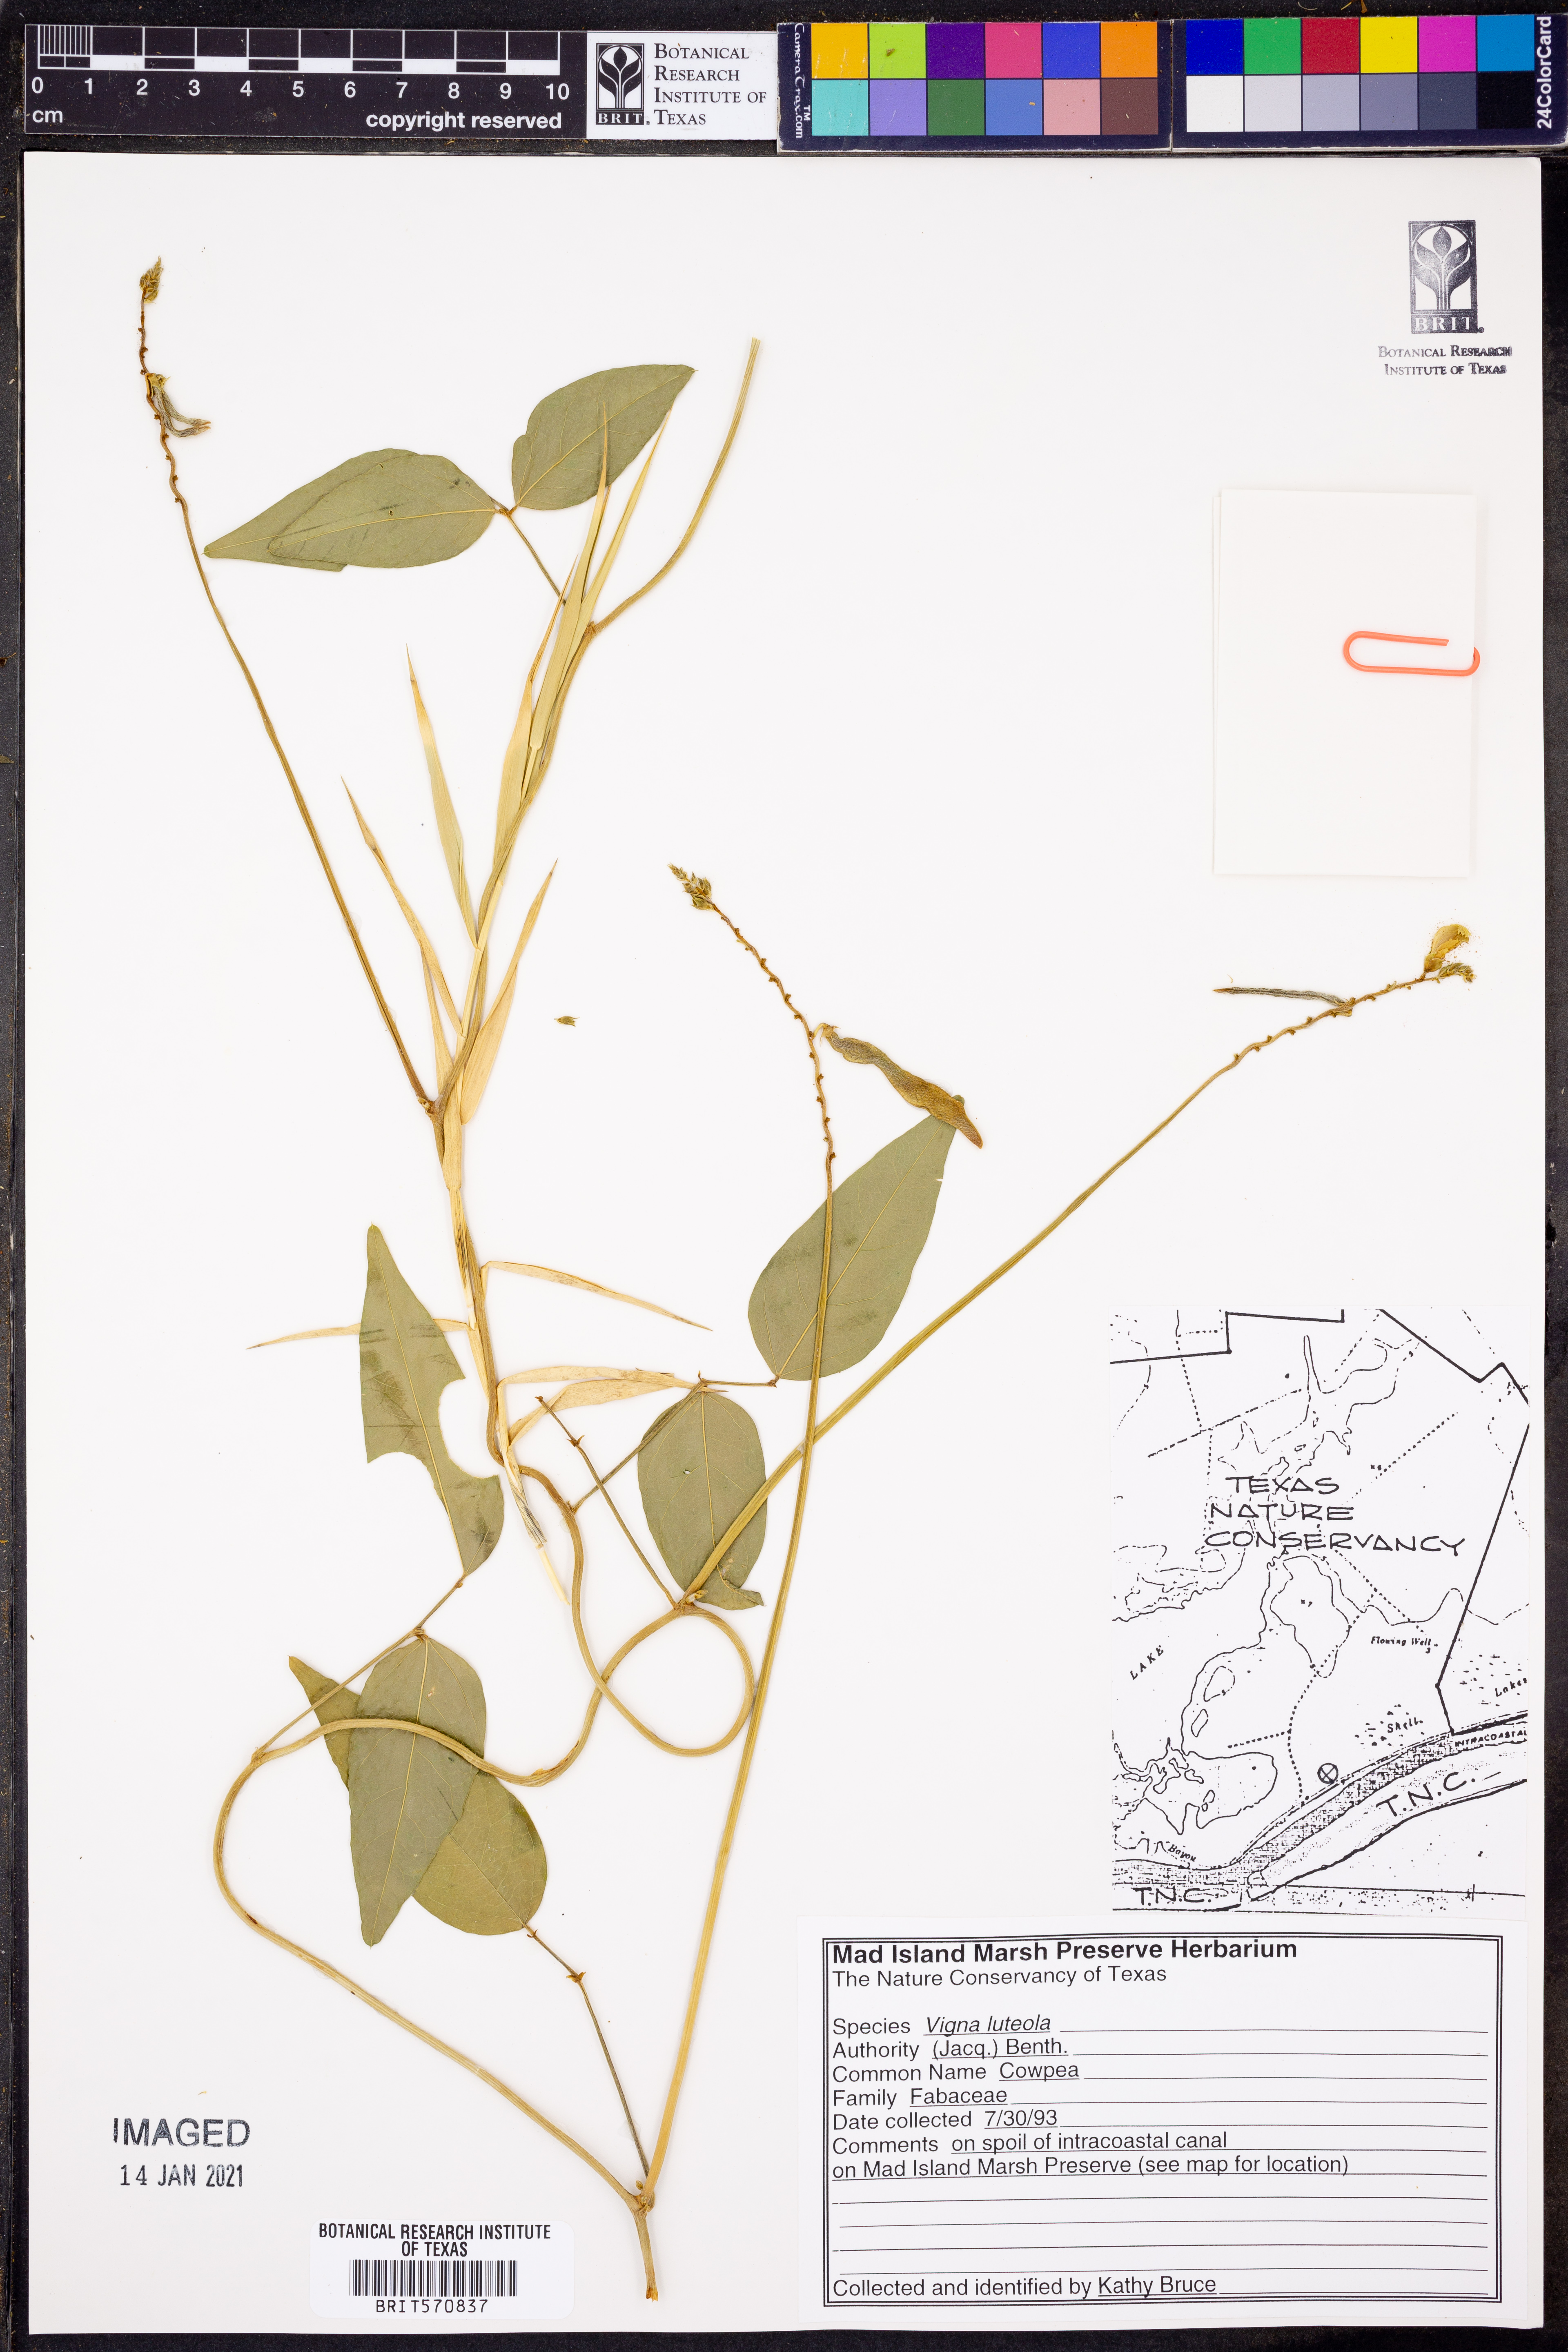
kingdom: Plantae
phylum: Tracheophyta
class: Magnoliopsida
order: Fabales
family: Fabaceae
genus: Vigna
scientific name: Vigna luteola
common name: Hairypod cowpea
